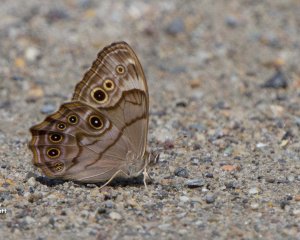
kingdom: Animalia
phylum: Arthropoda
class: Insecta
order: Lepidoptera
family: Nymphalidae
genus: Lethe
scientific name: Lethe anthedon
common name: Northern Pearly-Eye
